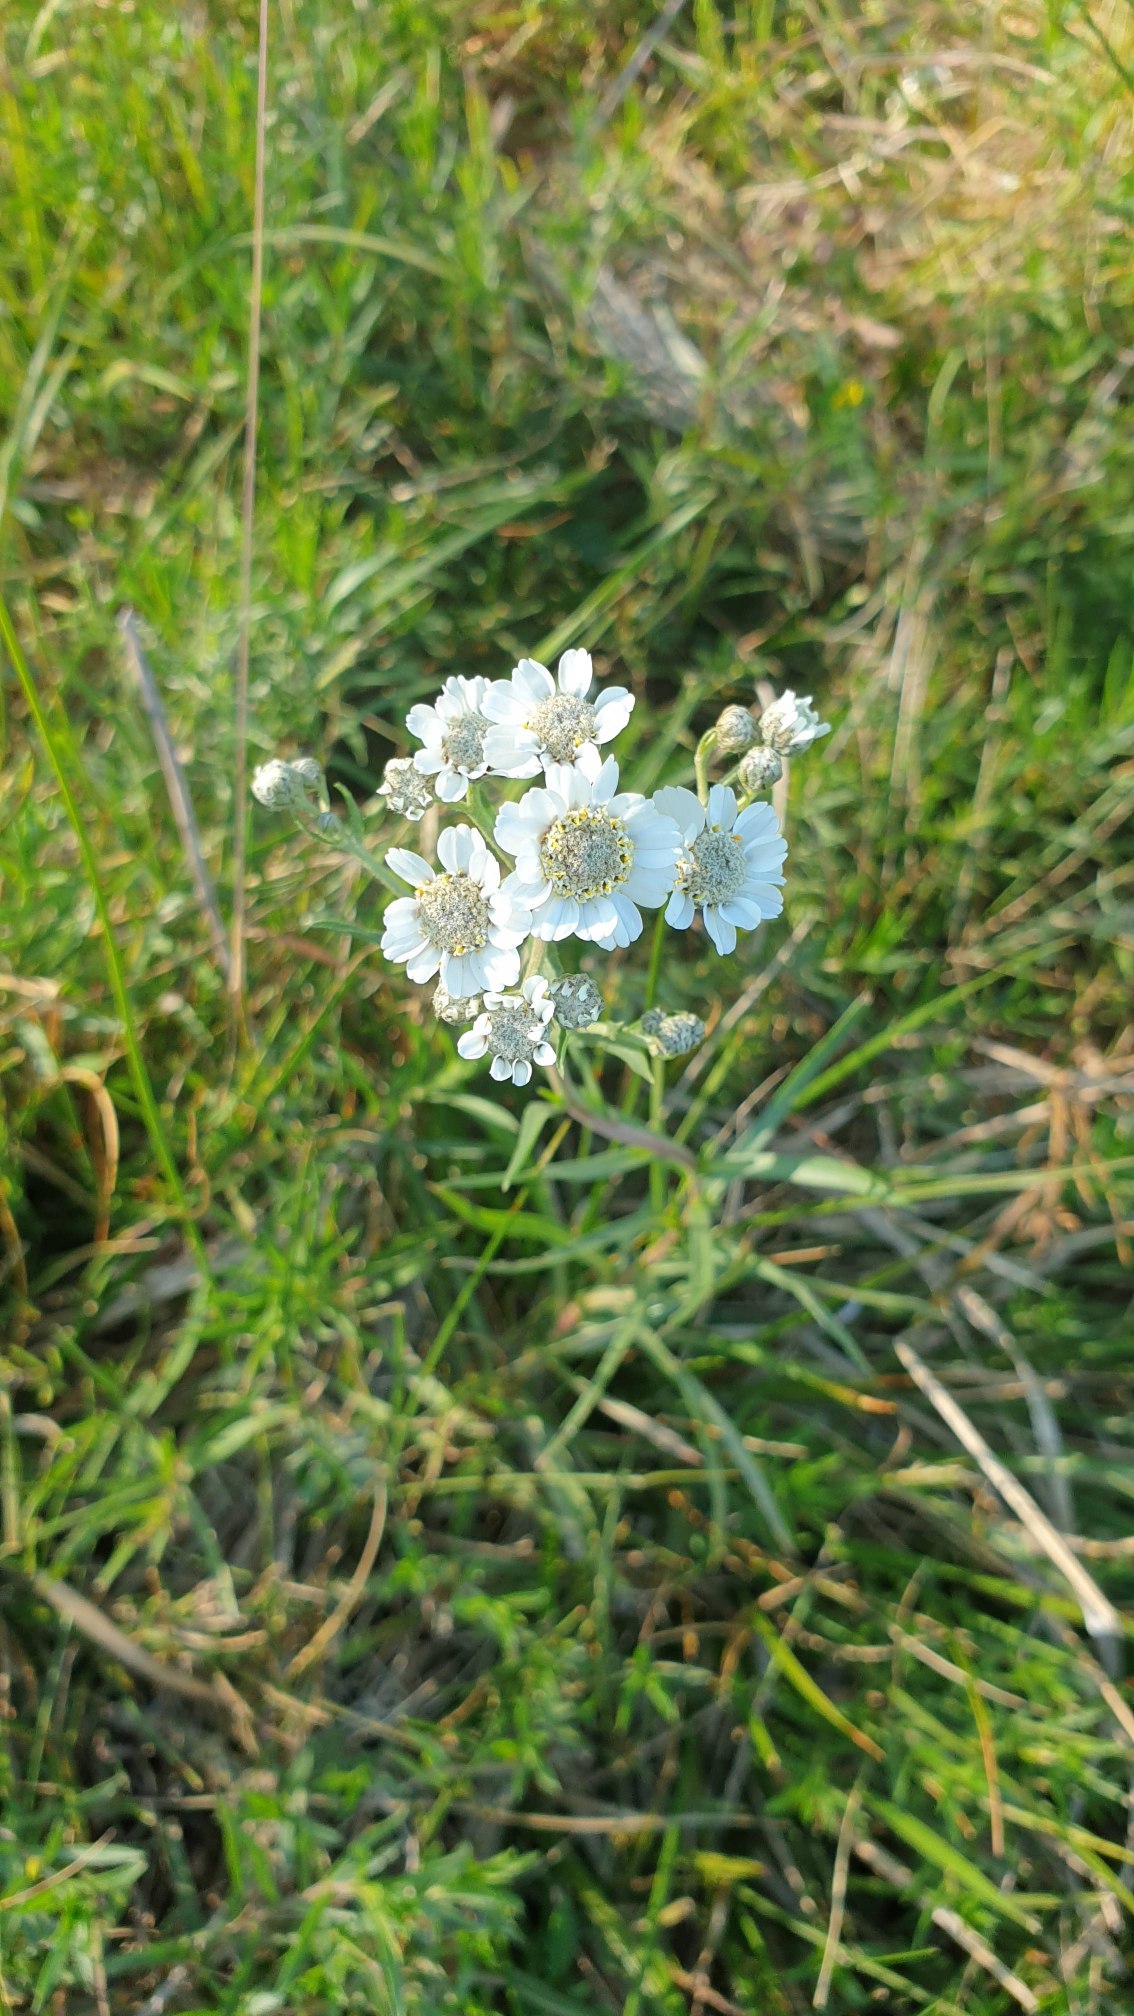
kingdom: Plantae
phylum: Tracheophyta
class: Magnoliopsida
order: Asterales
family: Asteraceae
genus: Achillea
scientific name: Achillea ptarmica
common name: Nyse-røllike
